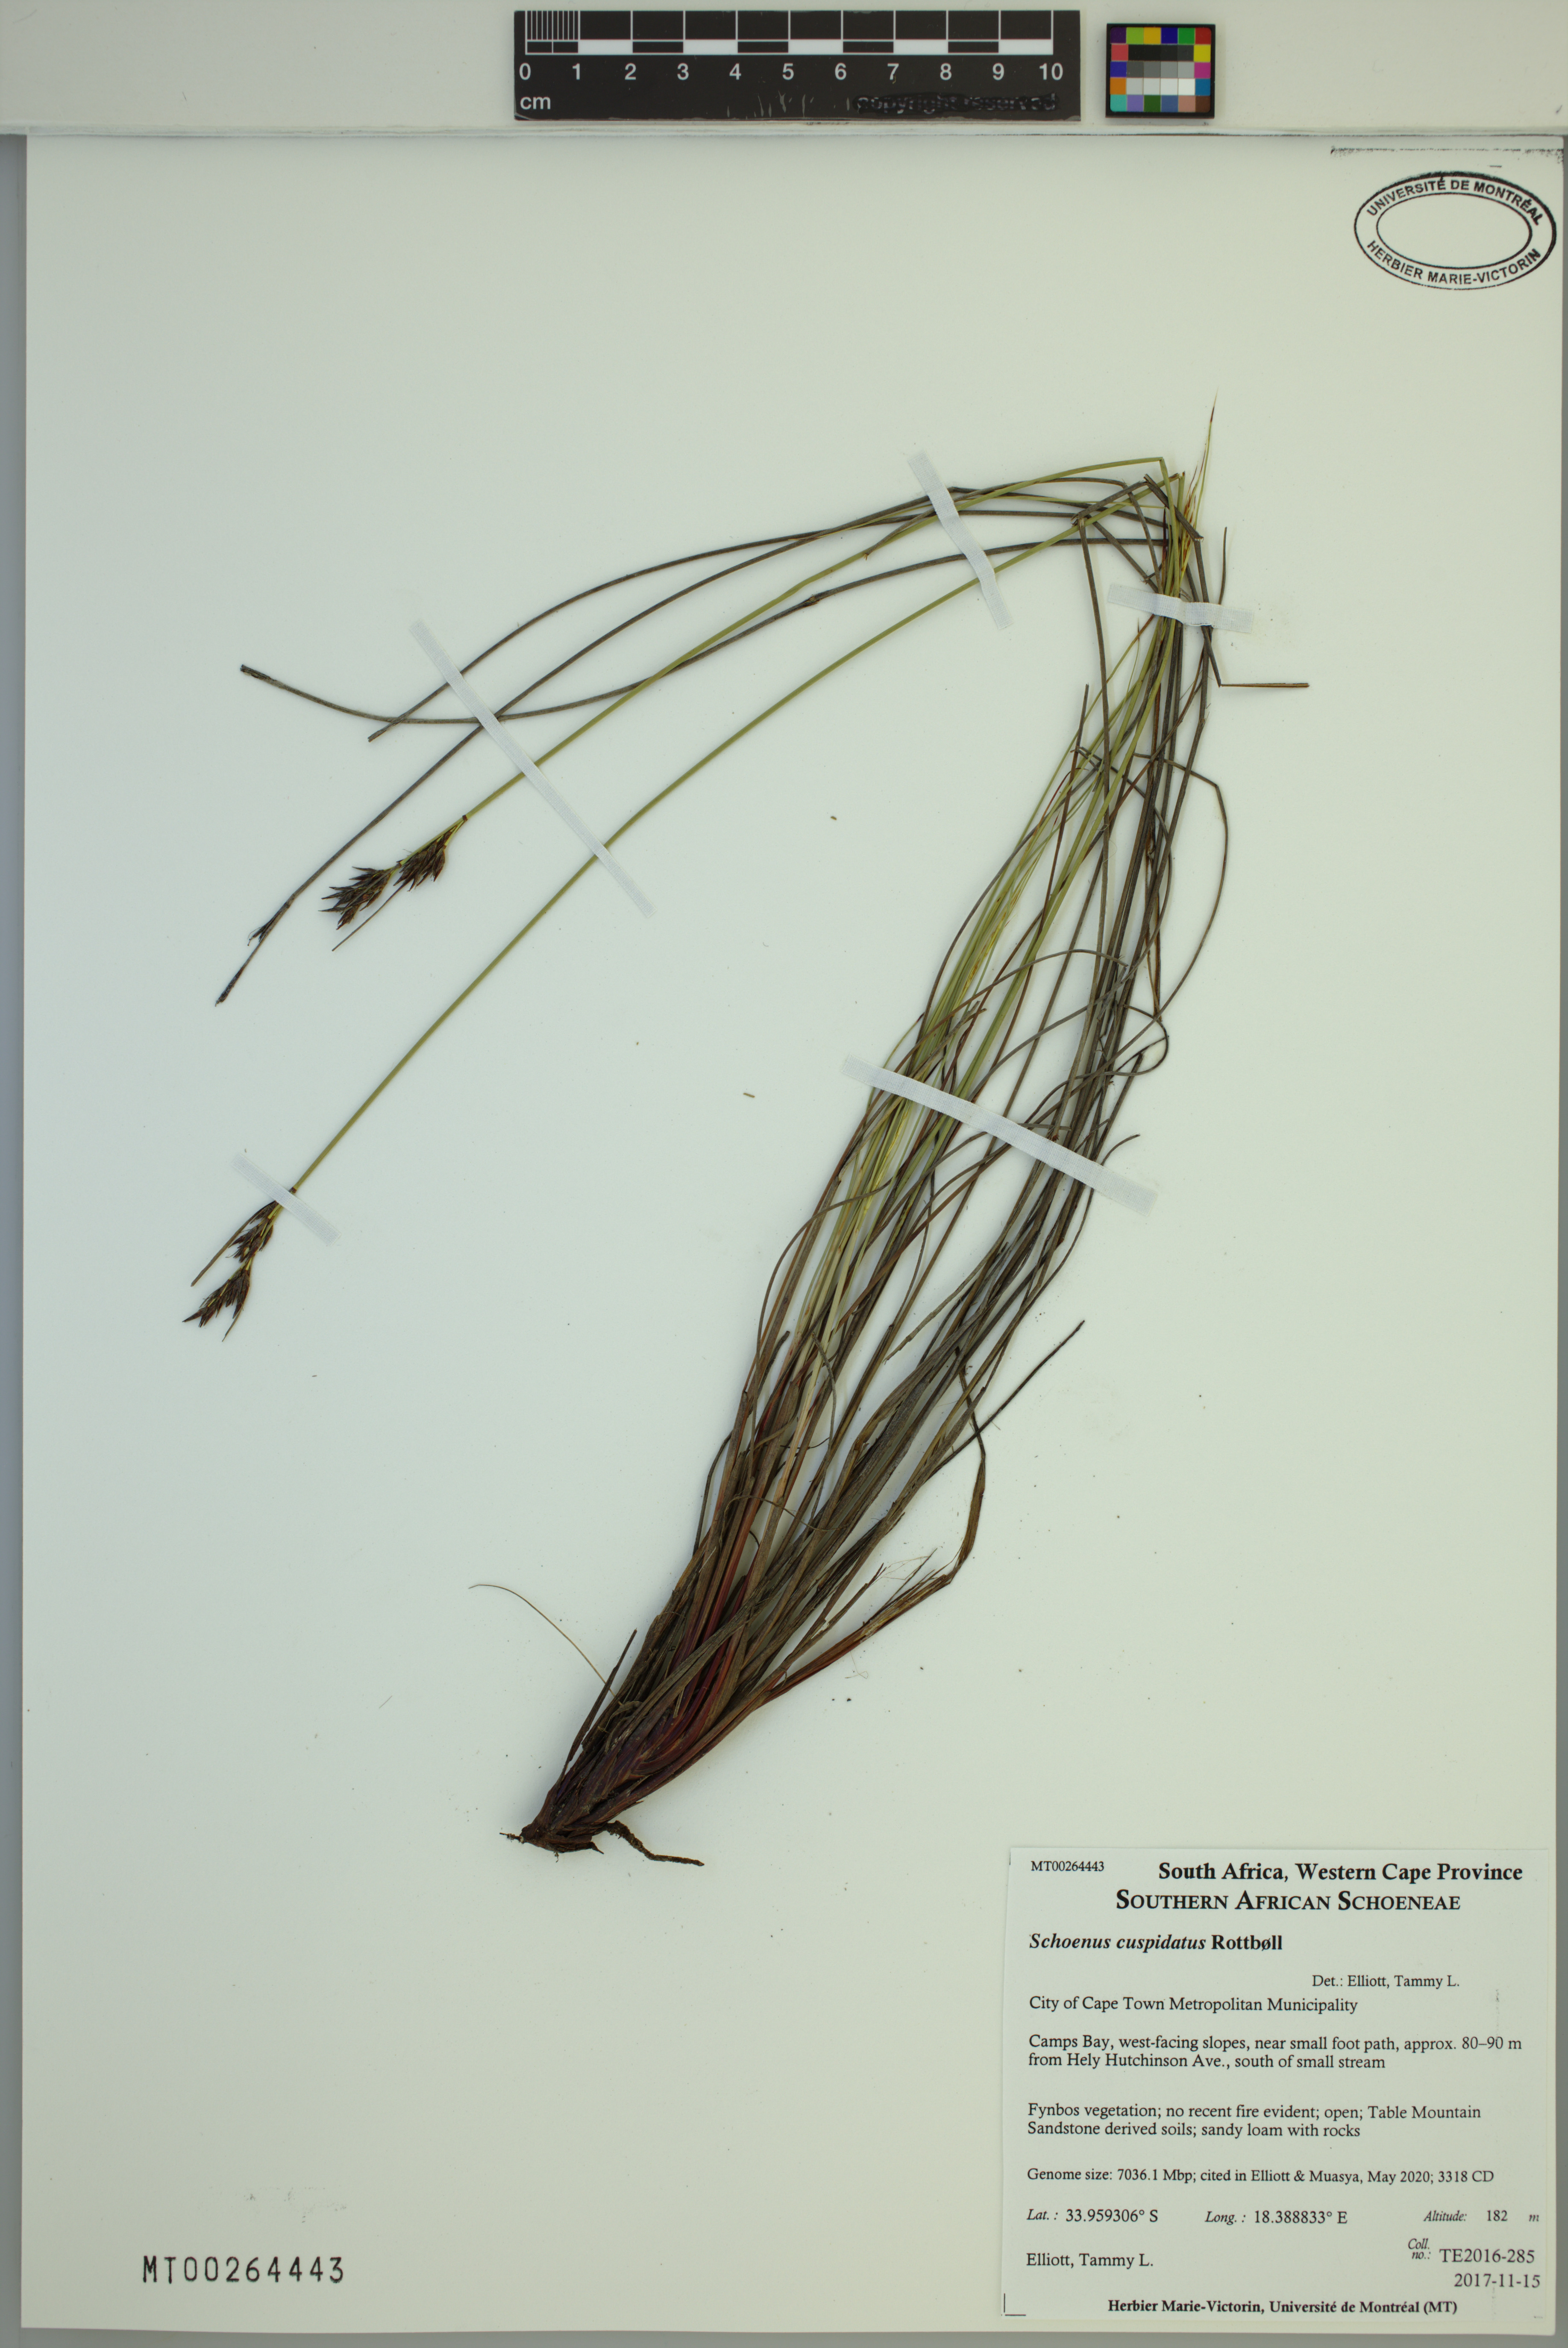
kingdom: Plantae
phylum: Tracheophyta
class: Liliopsida
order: Poales
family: Cyperaceae
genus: Schoenus
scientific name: Schoenus cuspidatus
